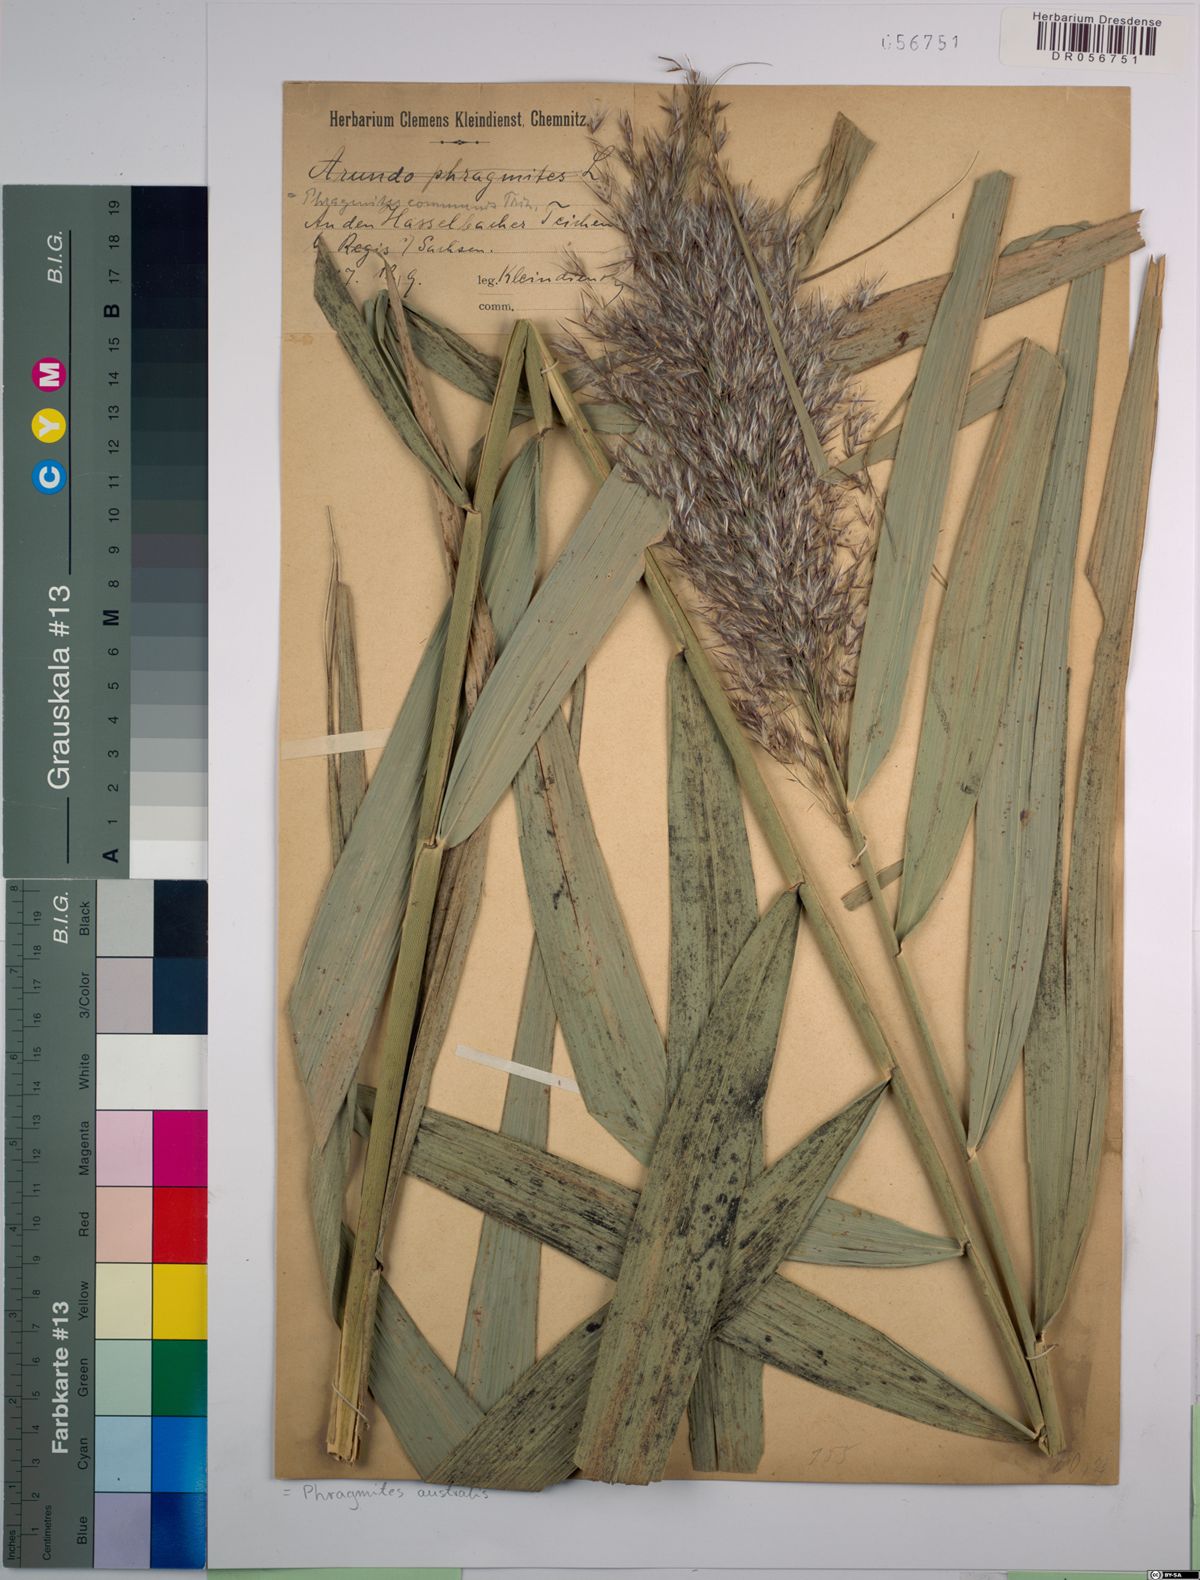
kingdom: Plantae
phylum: Tracheophyta
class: Liliopsida
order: Poales
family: Poaceae
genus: Phragmites
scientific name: Phragmites australis
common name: Common reed
